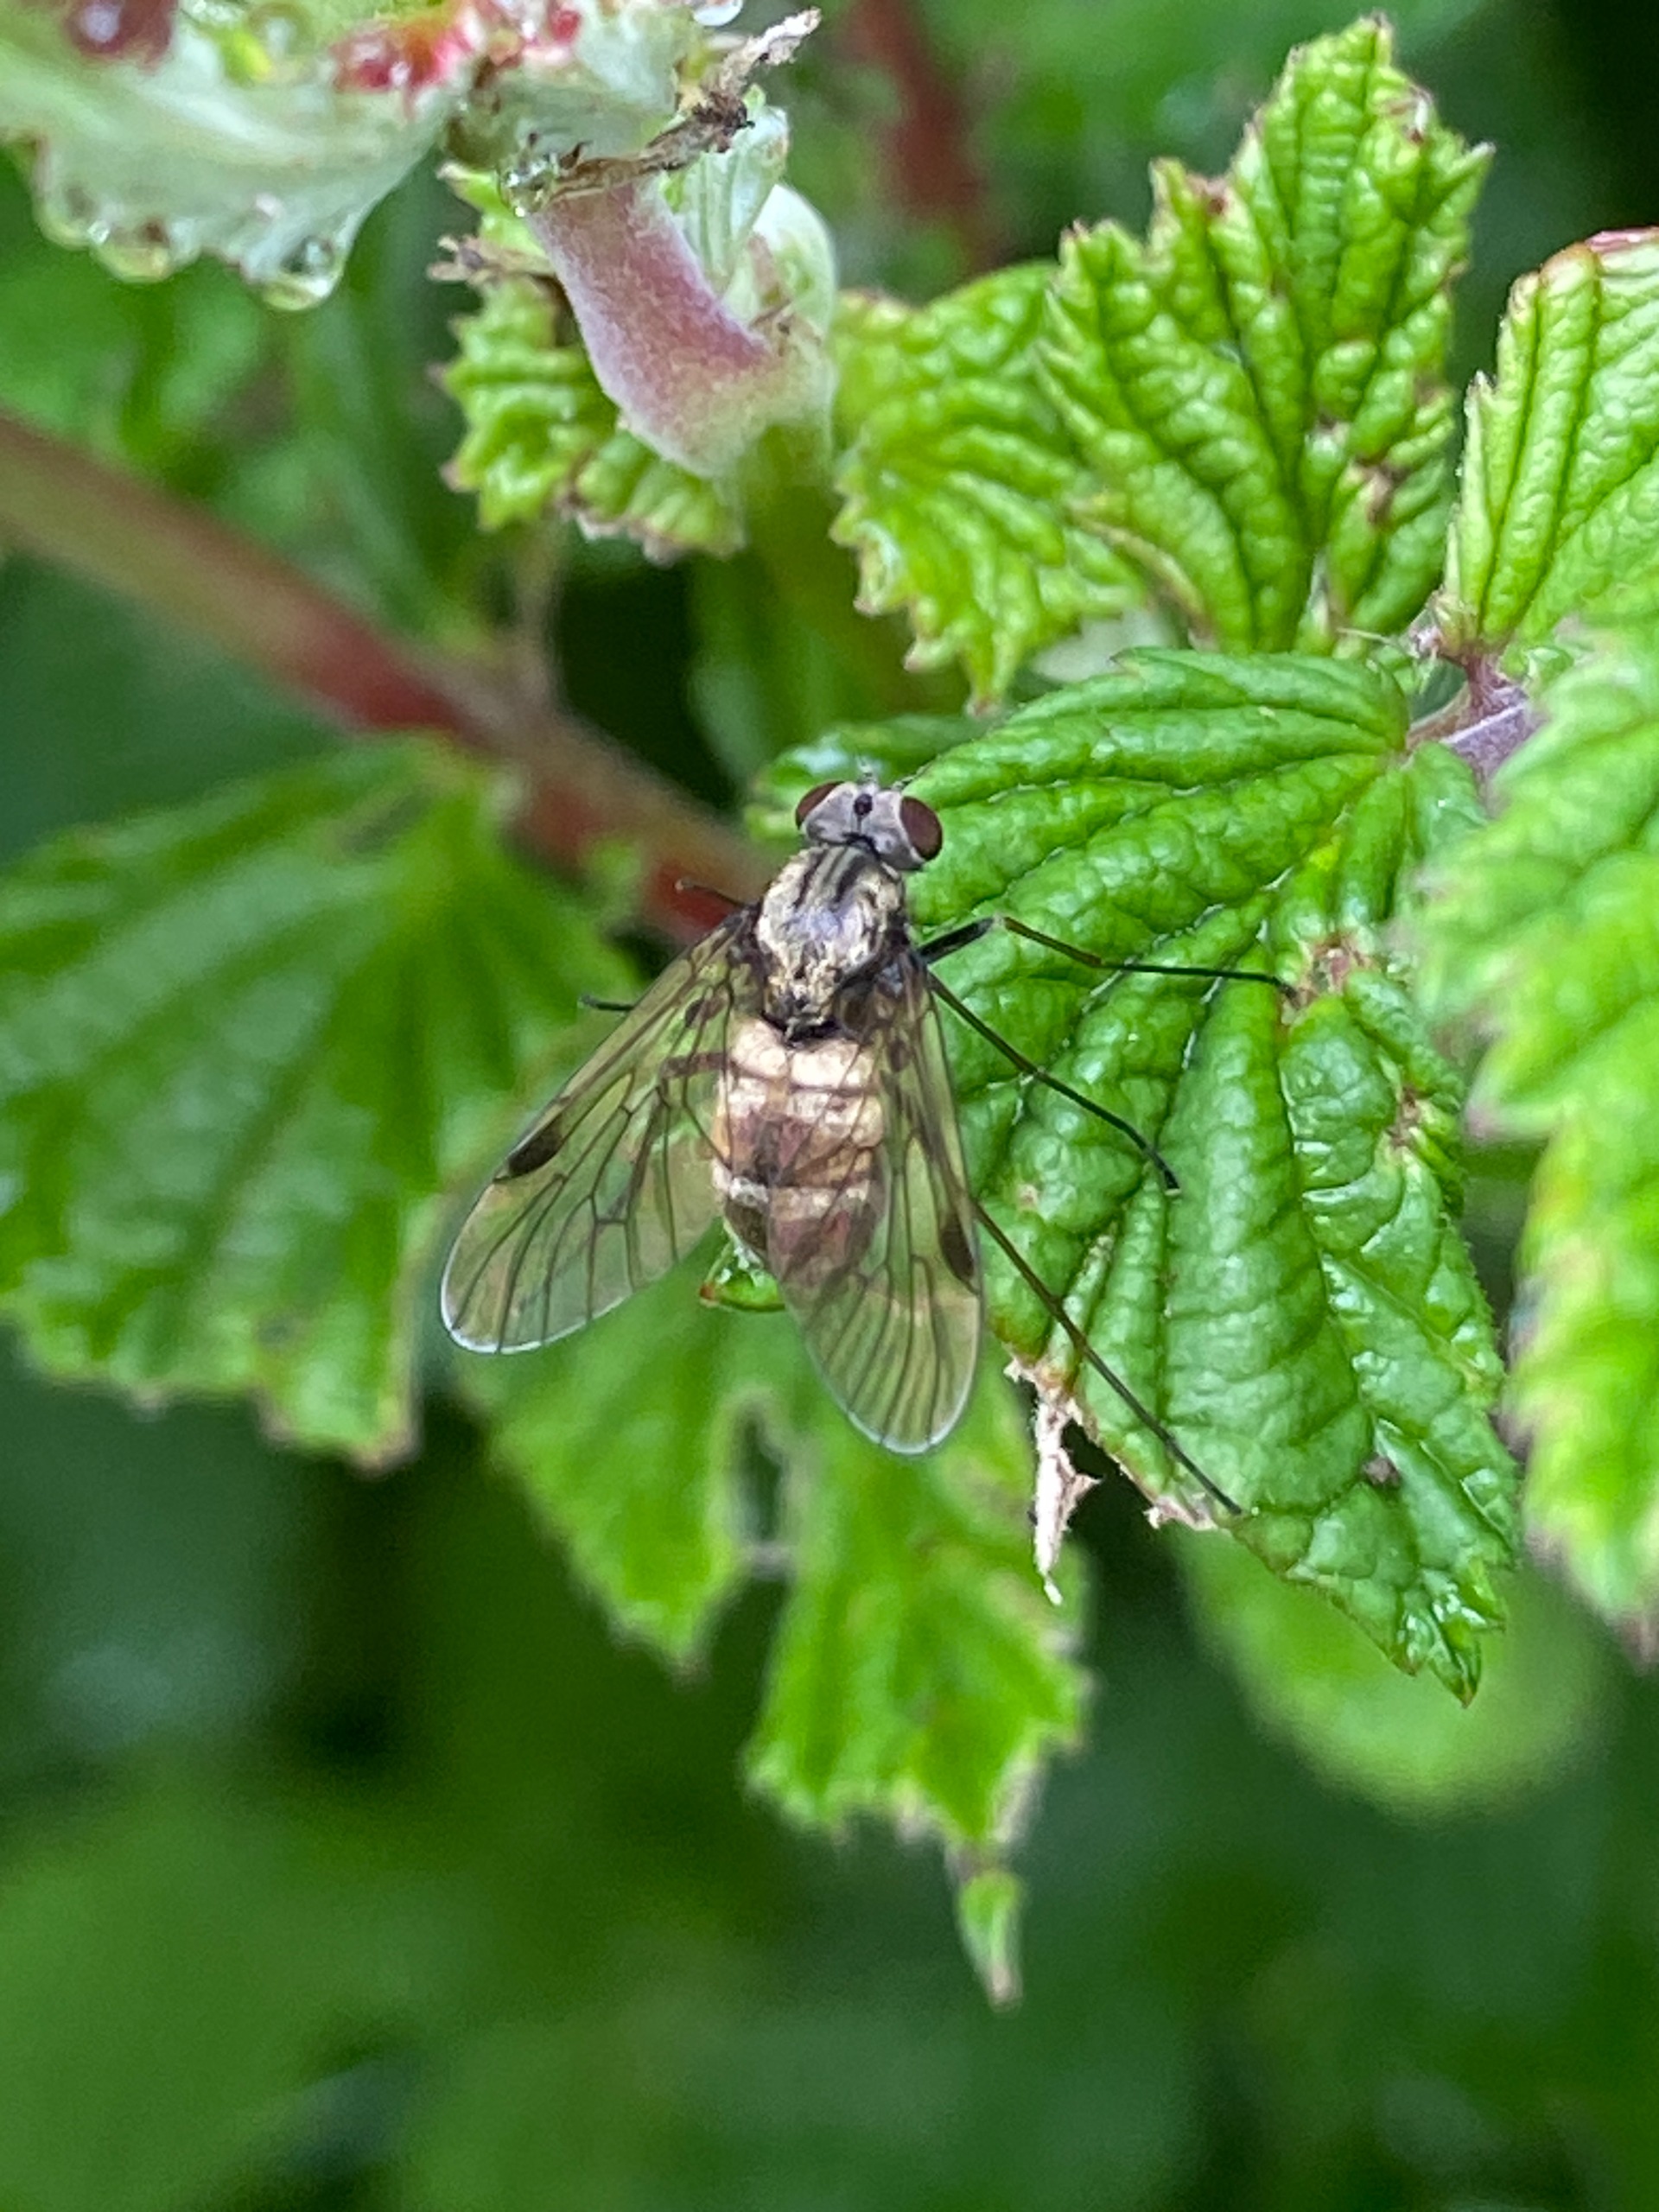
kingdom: Animalia
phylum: Arthropoda
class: Insecta
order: Diptera
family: Rhagionidae
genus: Chrysopilus
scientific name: Chrysopilus cristatus
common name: Gulhåret sneppeflue
